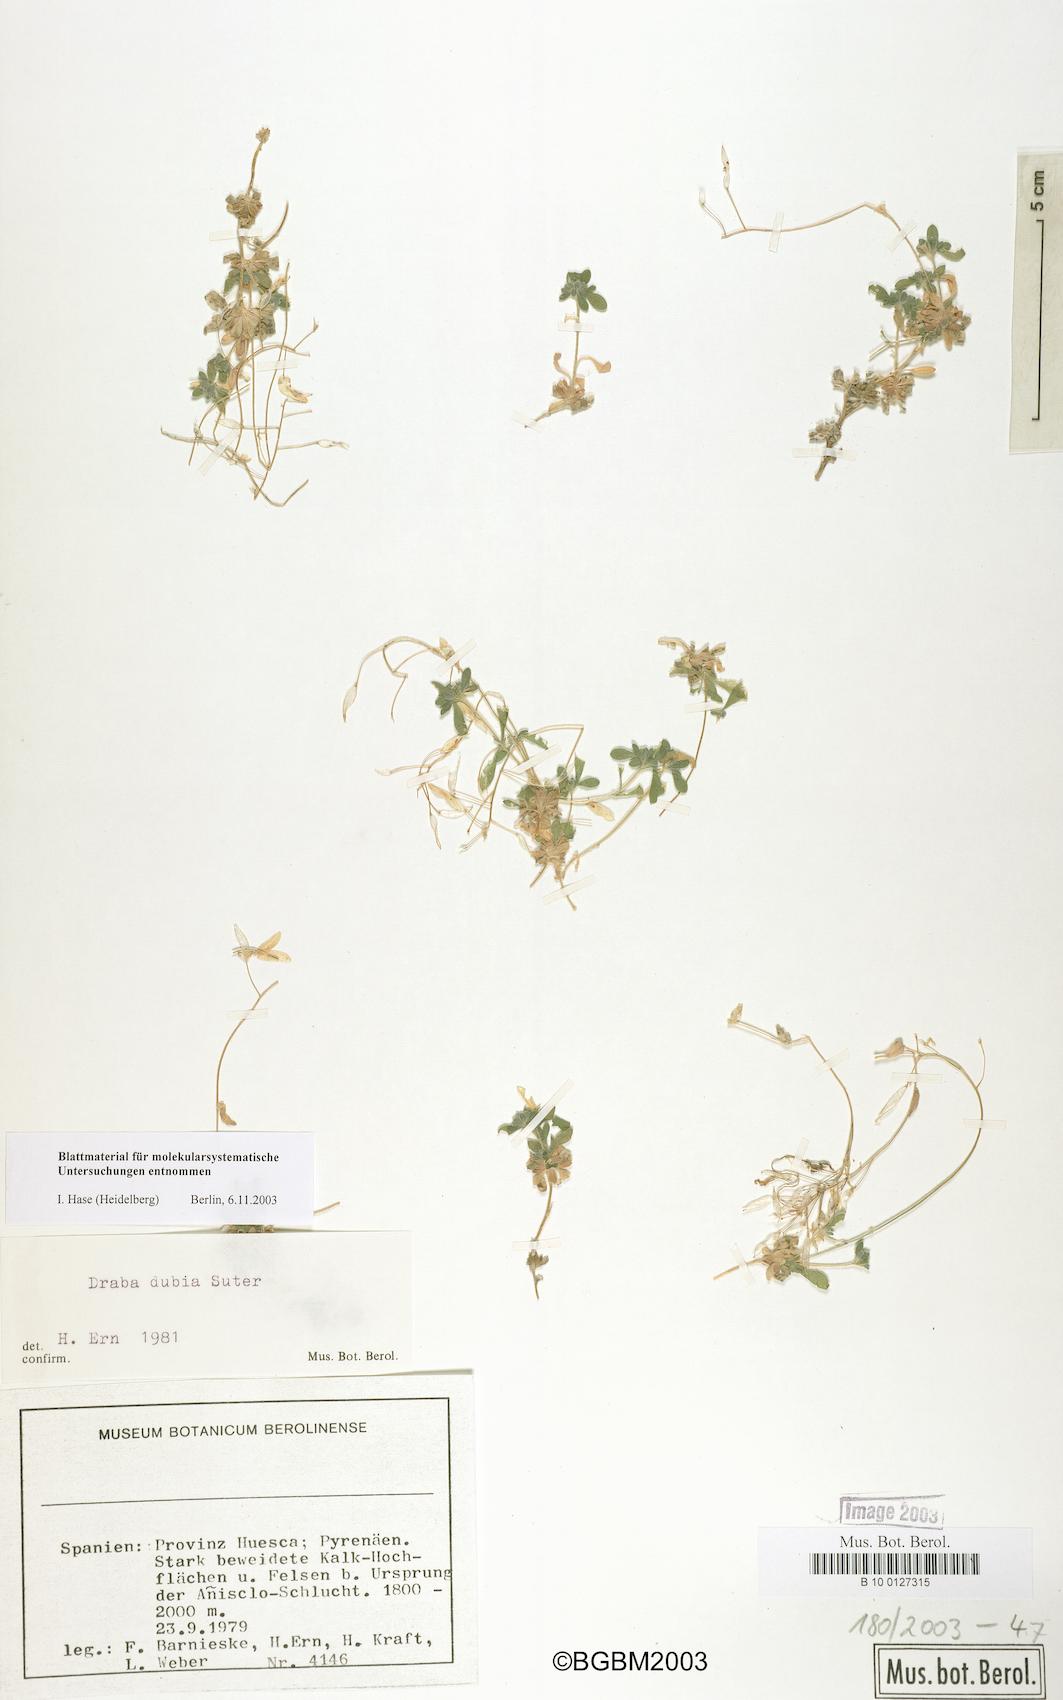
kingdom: Plantae
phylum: Tracheophyta
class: Magnoliopsida
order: Brassicales
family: Brassicaceae
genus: Draba
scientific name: Draba dubia
